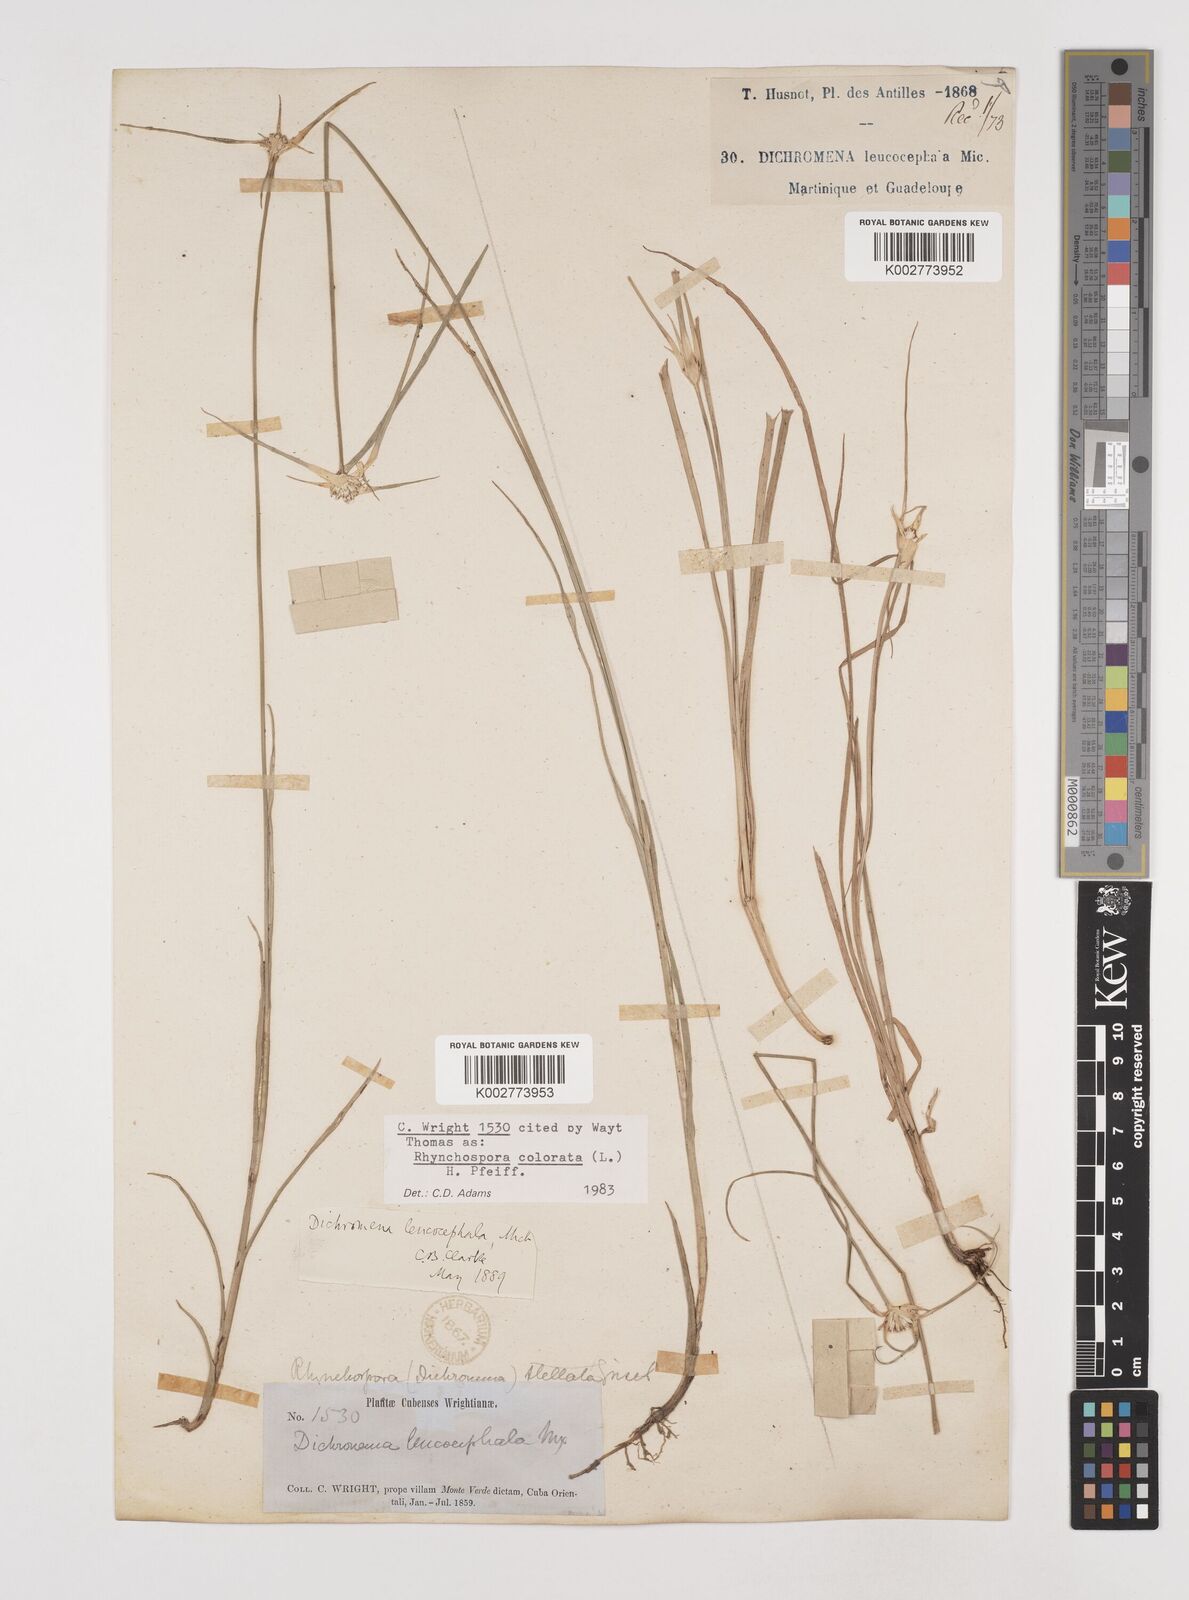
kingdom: Plantae
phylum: Tracheophyta
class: Liliopsida
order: Poales
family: Cyperaceae
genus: Rhynchospora
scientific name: Rhynchospora colorata
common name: Star sedge
